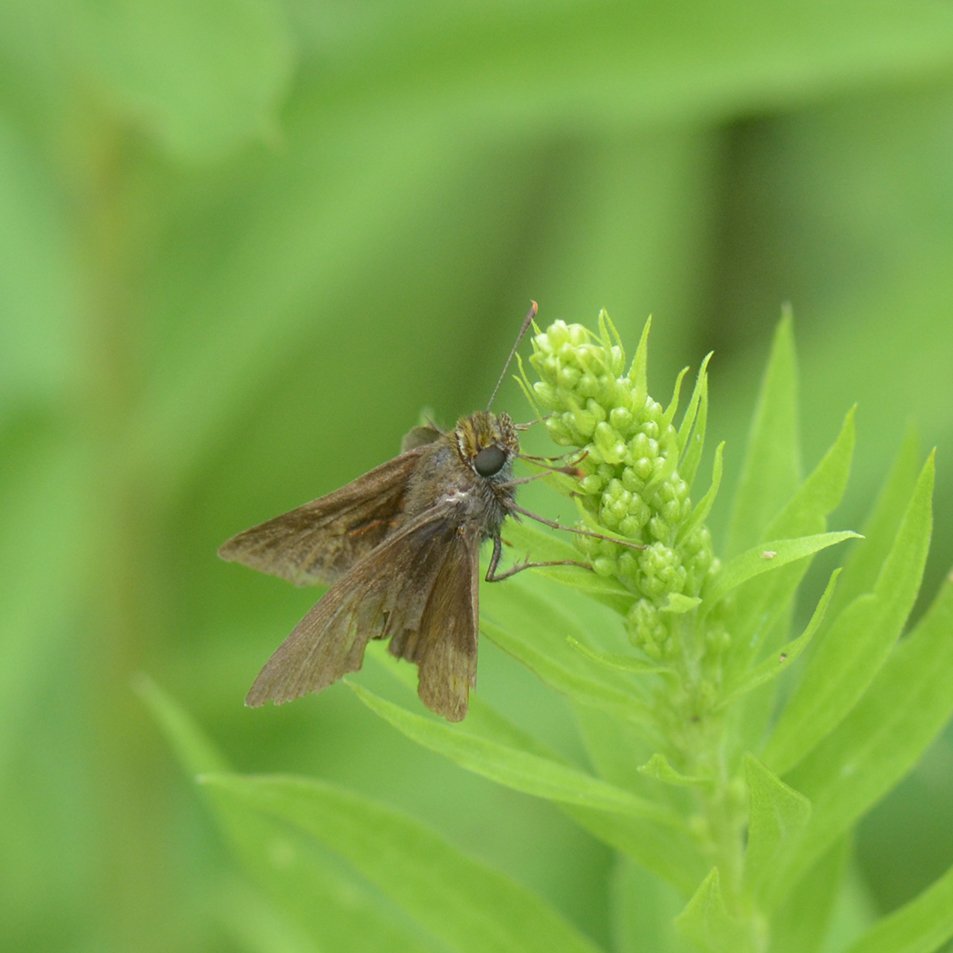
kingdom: Animalia
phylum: Arthropoda
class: Insecta
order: Lepidoptera
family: Hesperiidae
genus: Euphyes
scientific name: Euphyes vestris
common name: Dun Skipper
